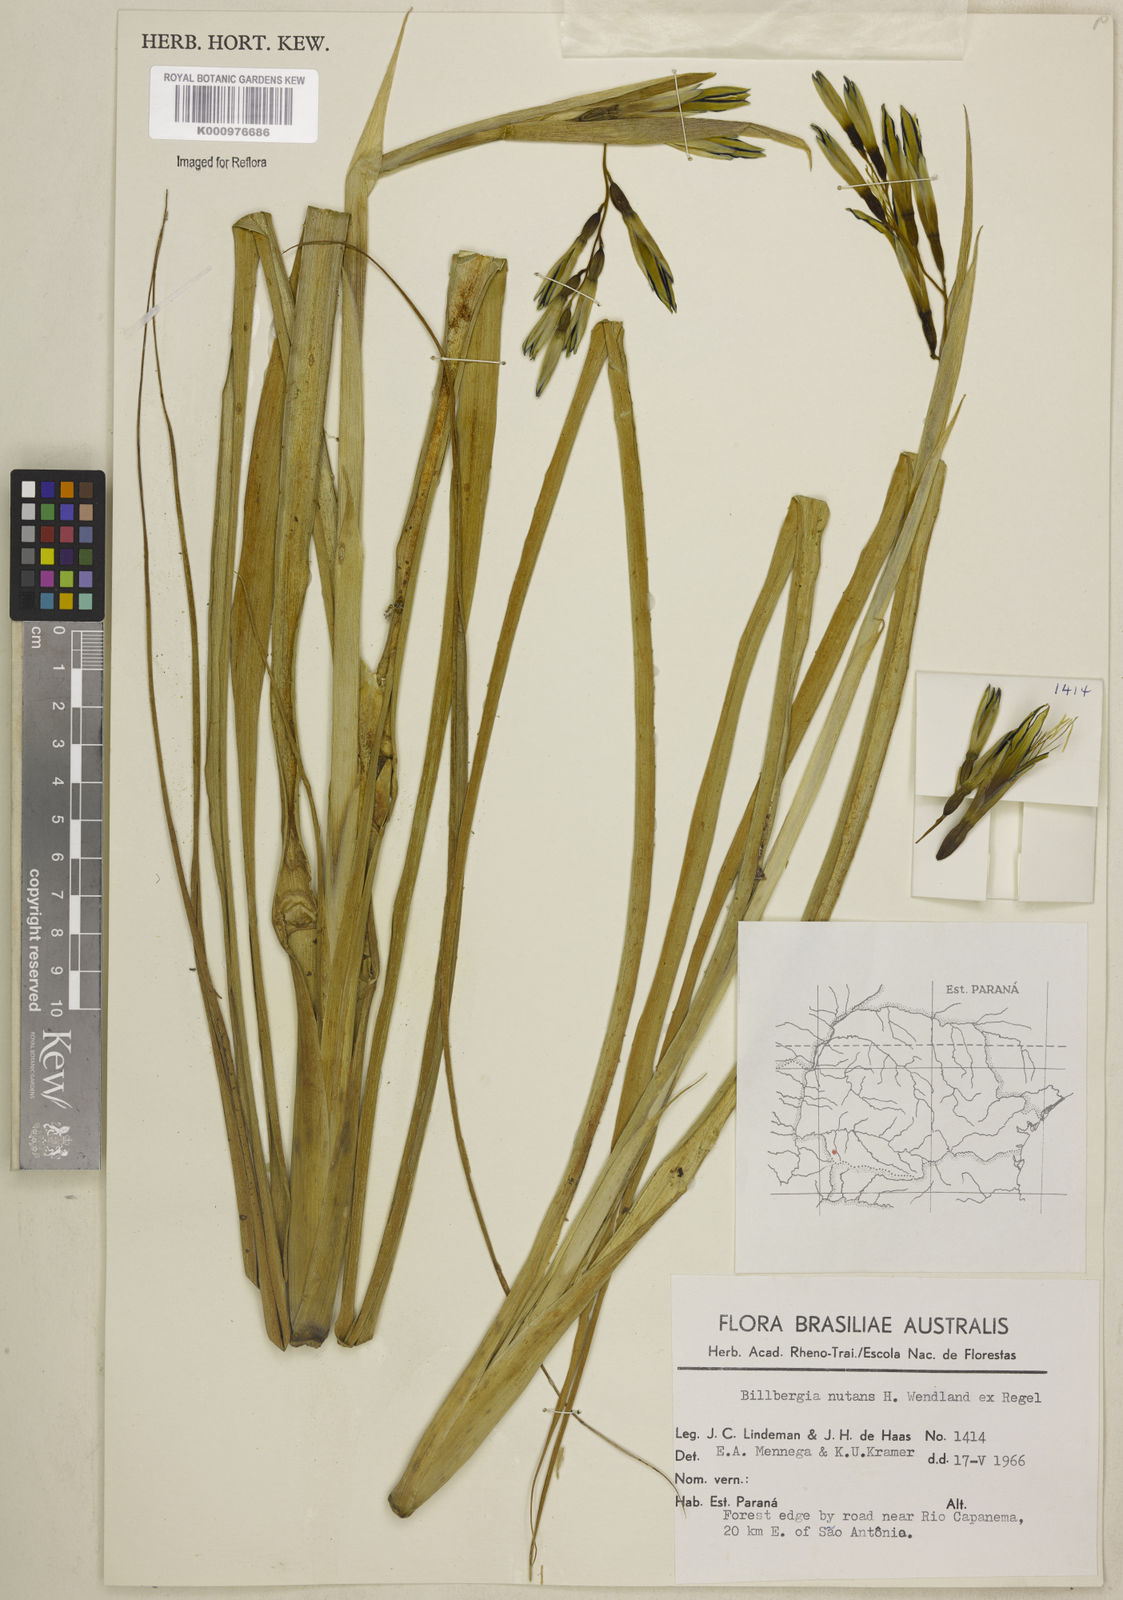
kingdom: Plantae
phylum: Tracheophyta
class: Liliopsida
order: Poales
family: Bromeliaceae
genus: Billbergia
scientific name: Billbergia nutans
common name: Friendship-plant
